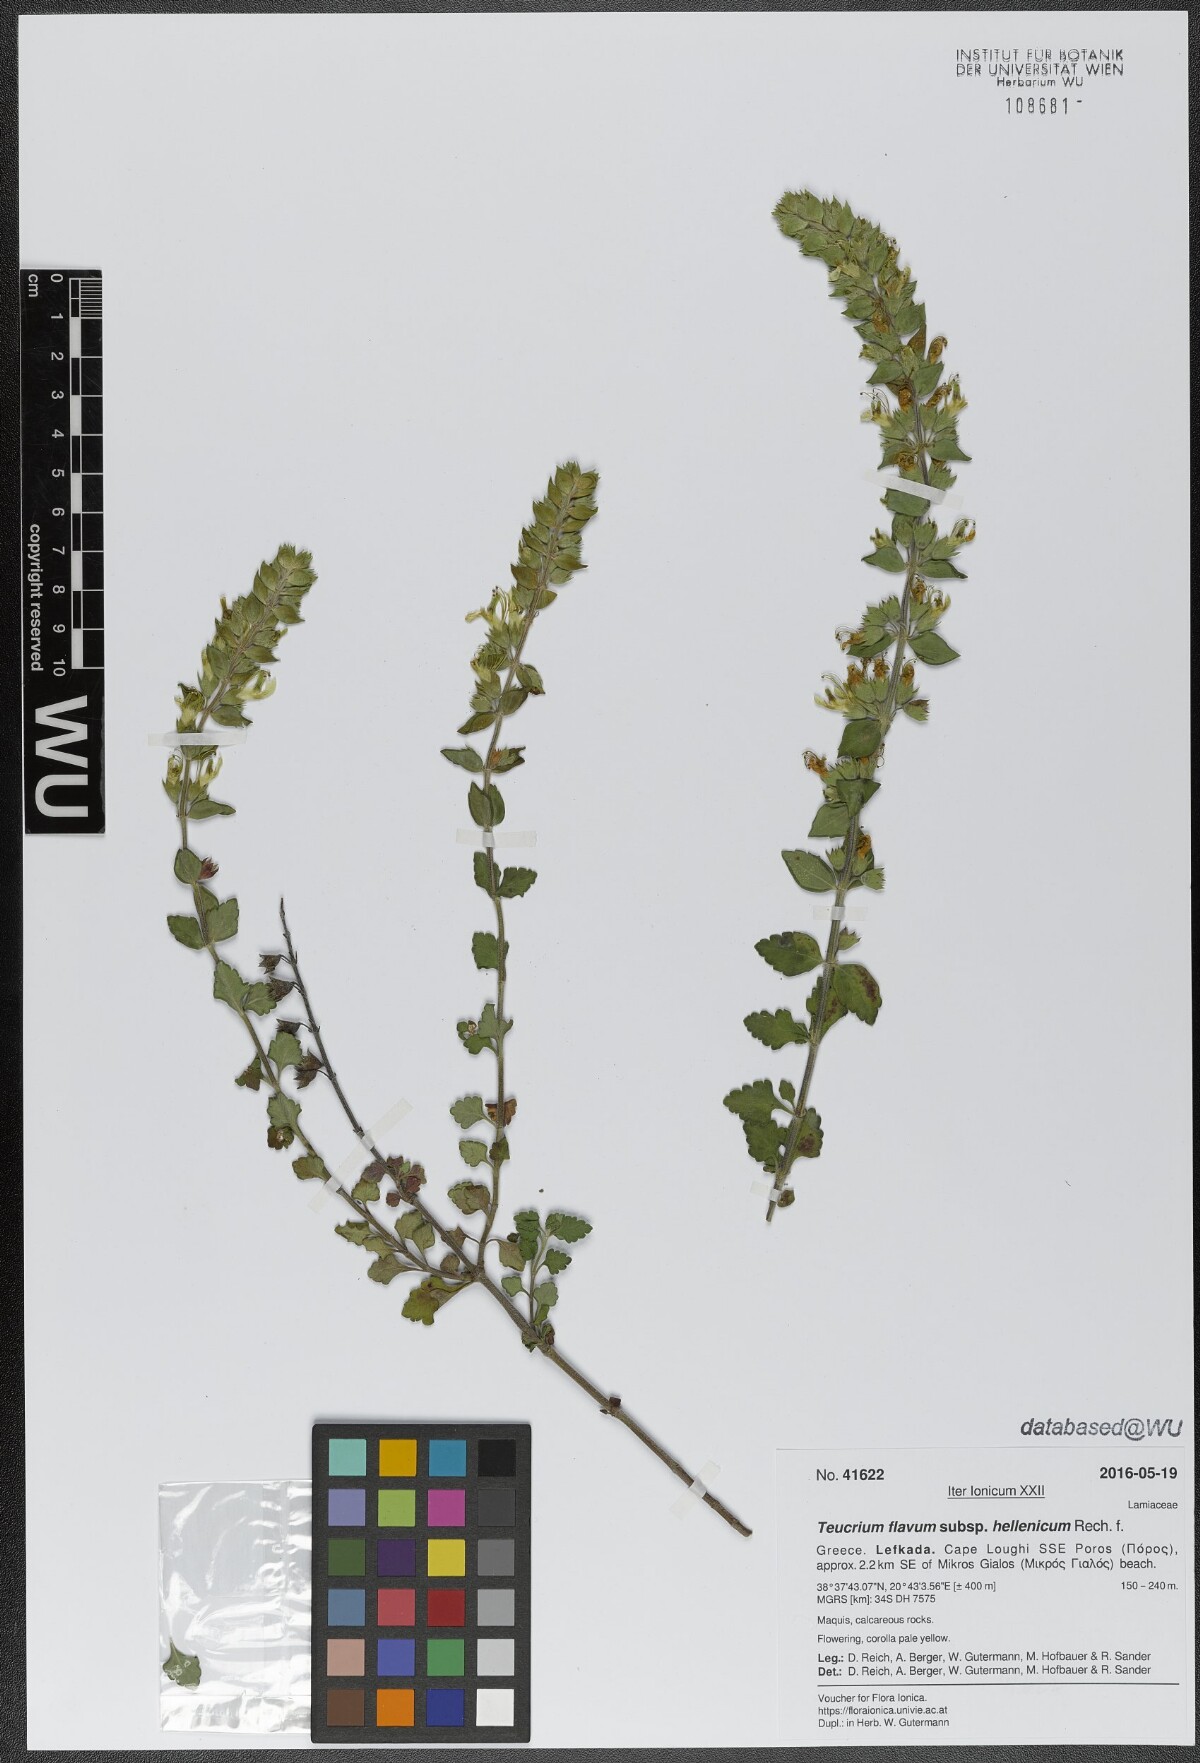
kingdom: Plantae
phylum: Tracheophyta
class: Magnoliopsida
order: Lamiales
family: Lamiaceae
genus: Teucrium
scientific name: Teucrium flavum
